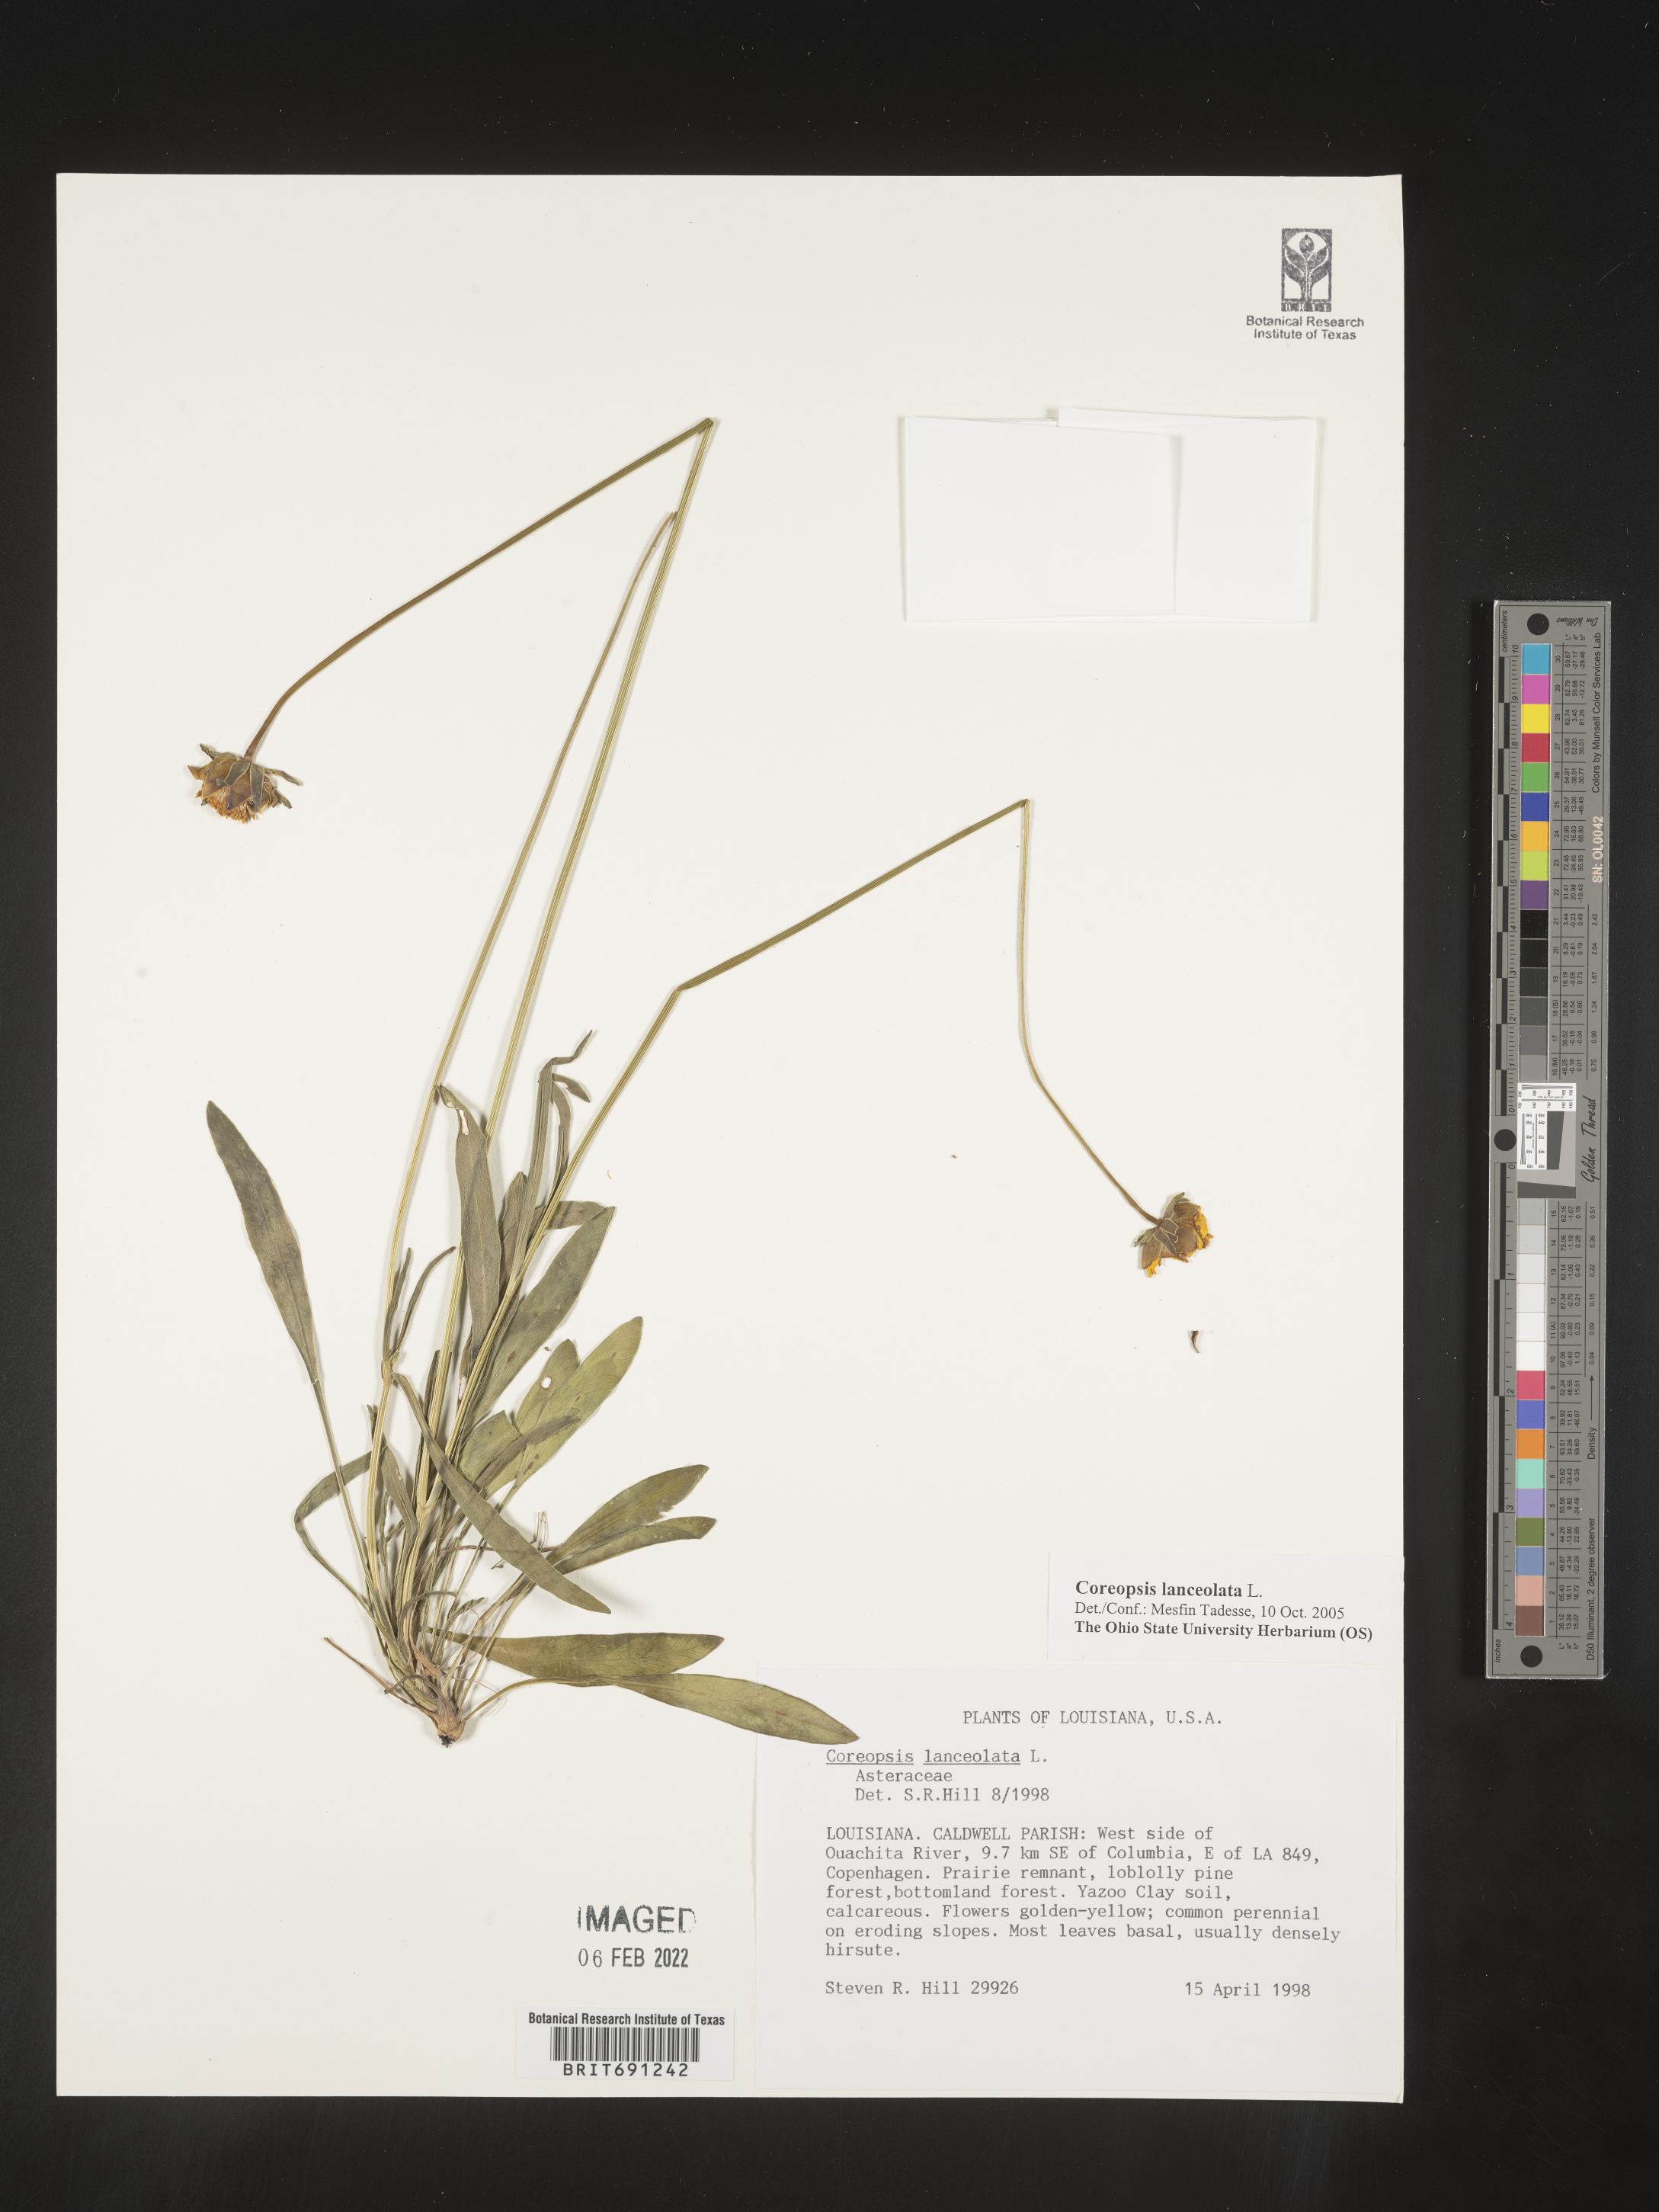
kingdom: Plantae
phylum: Tracheophyta
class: Magnoliopsida
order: Asterales
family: Asteraceae
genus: Coreopsis
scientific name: Coreopsis lanceolata
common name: Garden coreopsis
